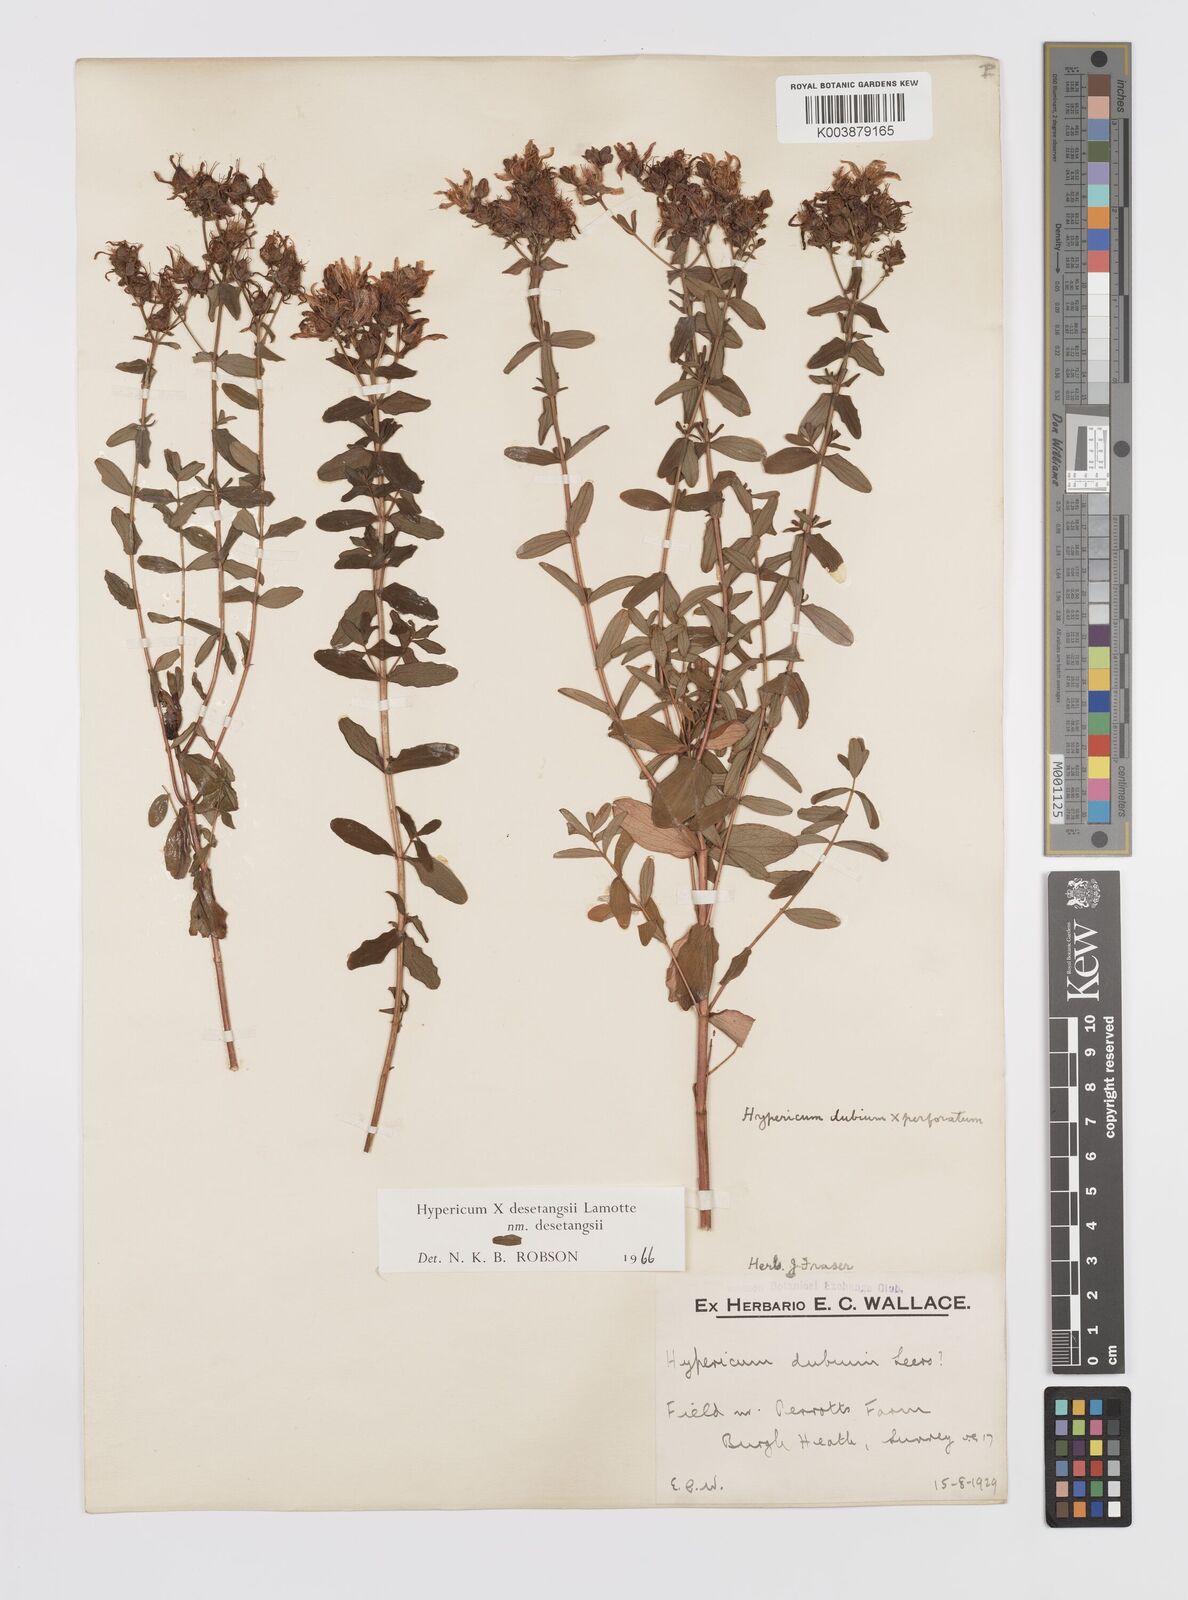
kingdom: Plantae
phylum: Tracheophyta
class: Magnoliopsida
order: Malpighiales
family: Hypericaceae
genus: Hypericum
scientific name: Hypericum undulatum
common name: Wavy st. john's-wort
